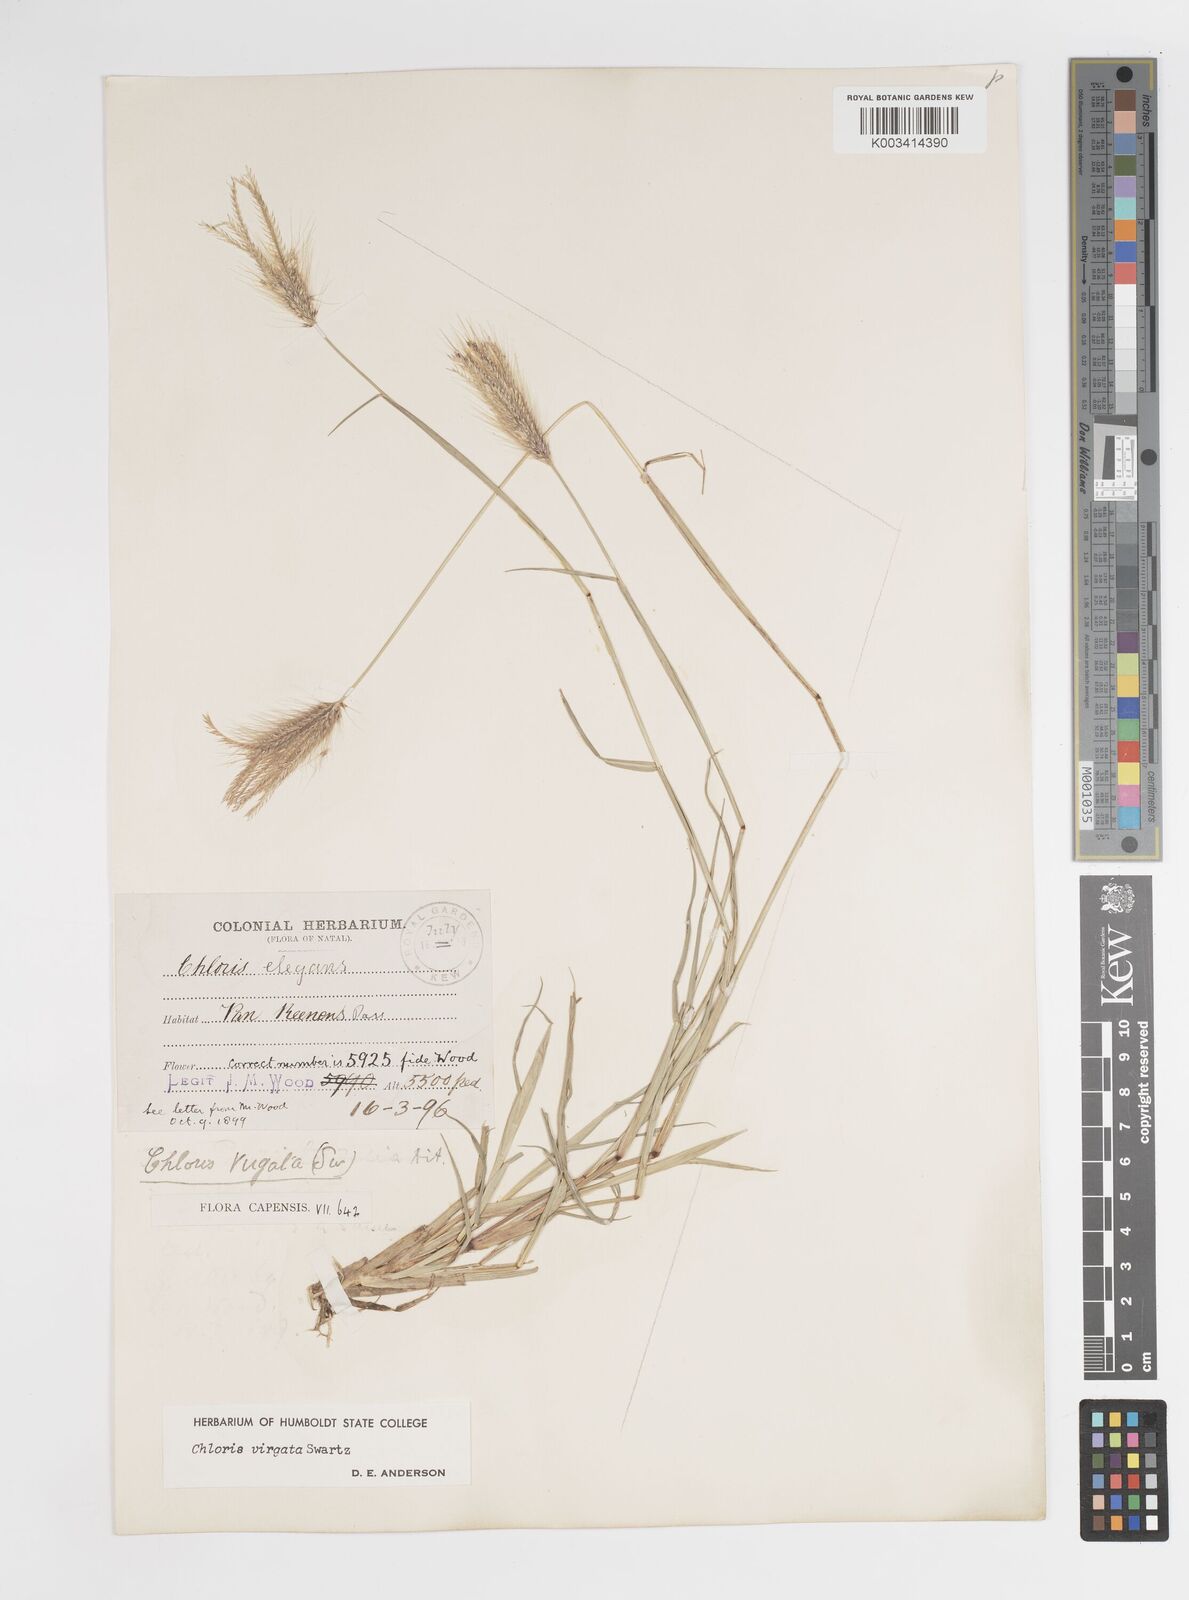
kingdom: Plantae
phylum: Tracheophyta
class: Liliopsida
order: Poales
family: Poaceae
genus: Chloris
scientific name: Chloris virgata
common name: Feathery rhodes-grass
